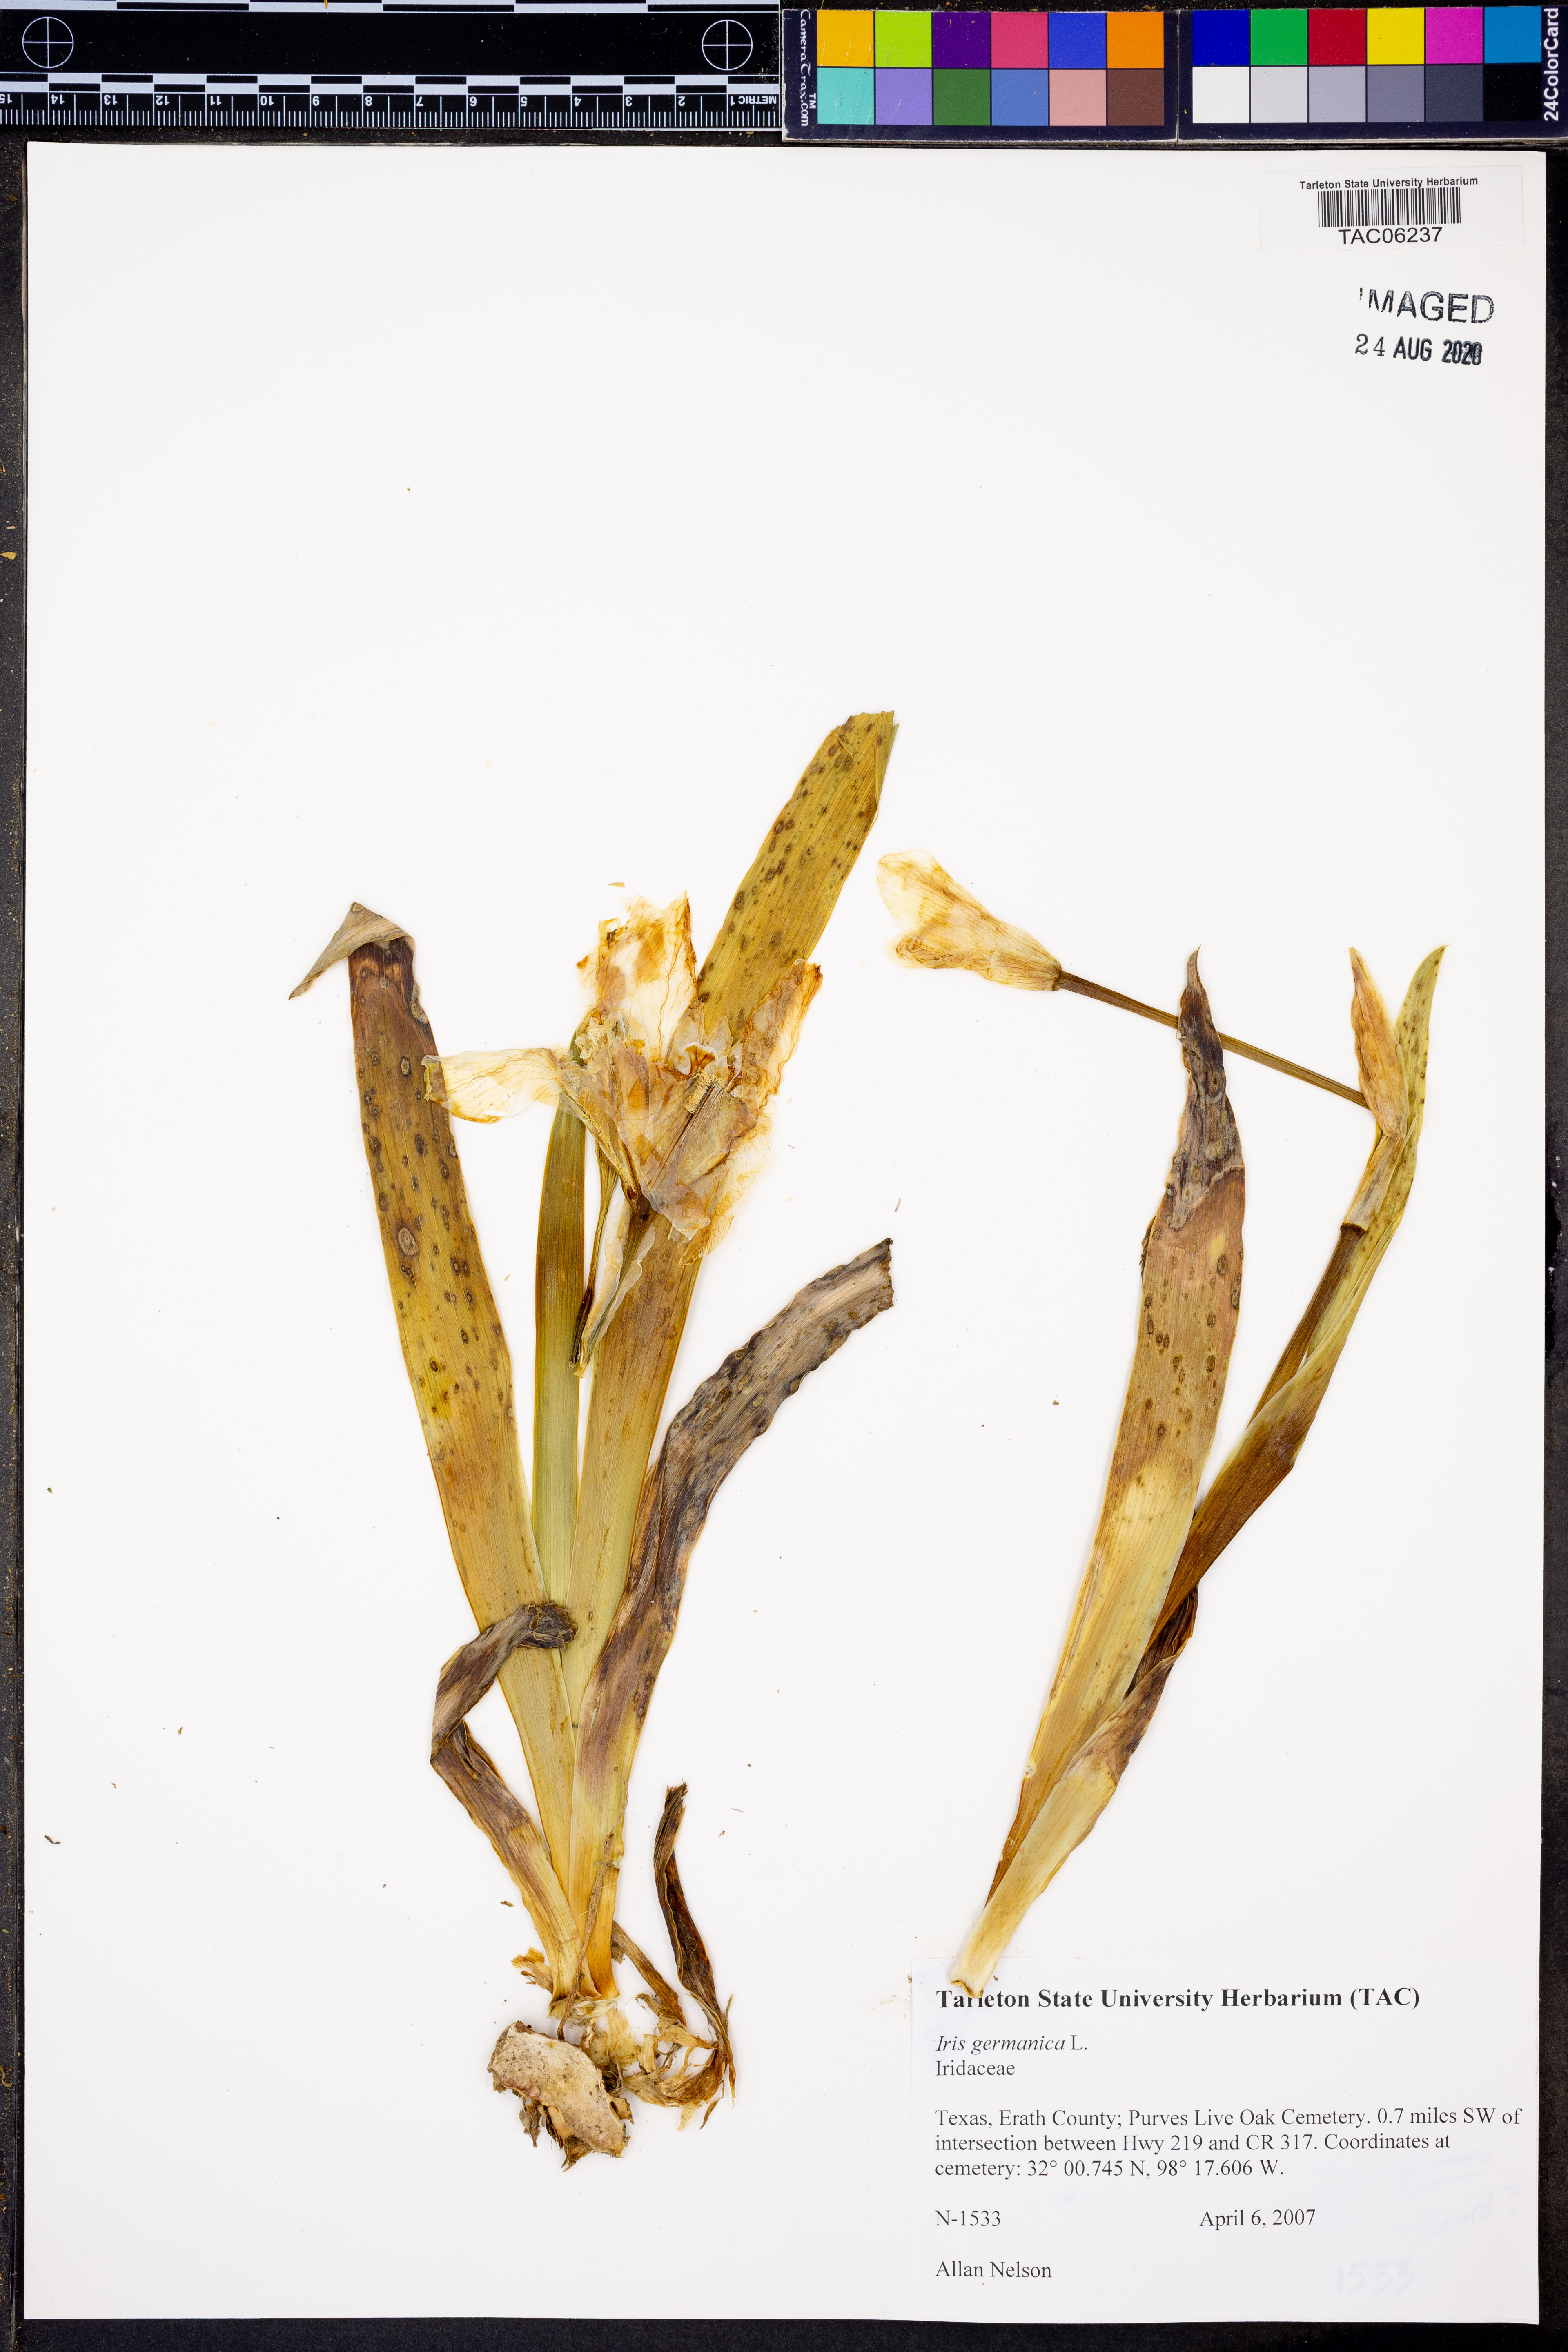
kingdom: Plantae
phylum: Tracheophyta
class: Liliopsida
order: Asparagales
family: Iridaceae
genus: Iris
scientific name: Iris germanica
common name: German iris
